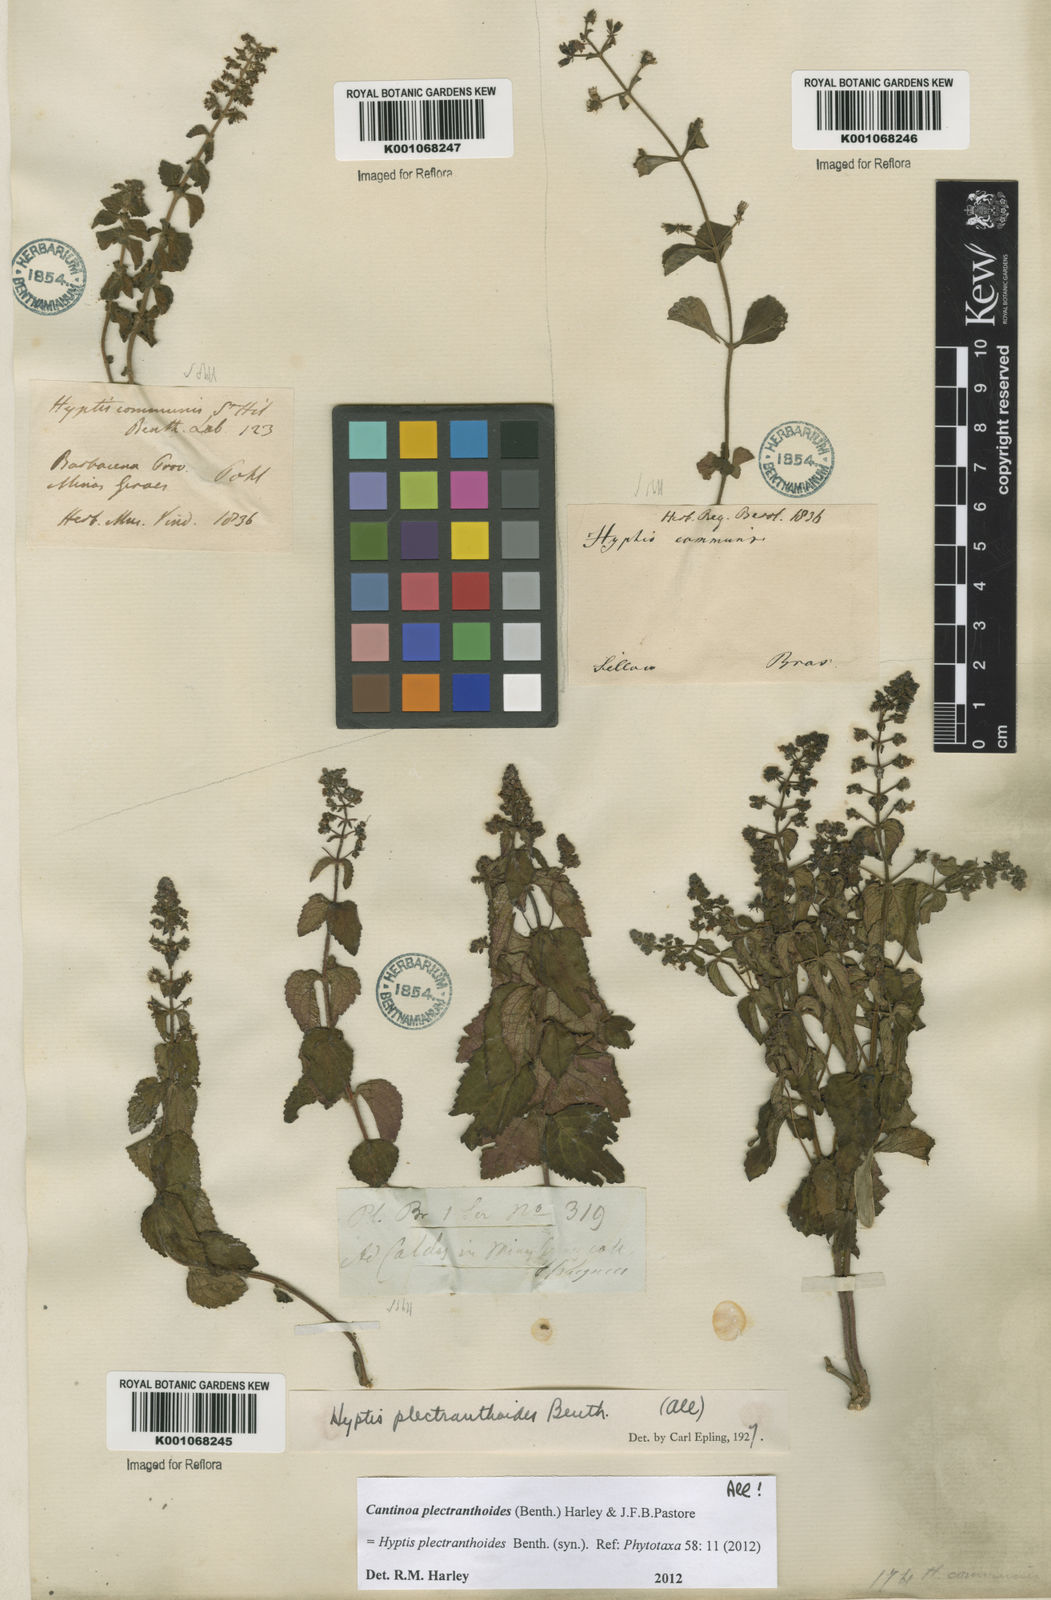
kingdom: Plantae
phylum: Tracheophyta
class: Magnoliopsida
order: Lamiales
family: Lamiaceae
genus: Cantinoa
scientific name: Cantinoa plectranthoides
